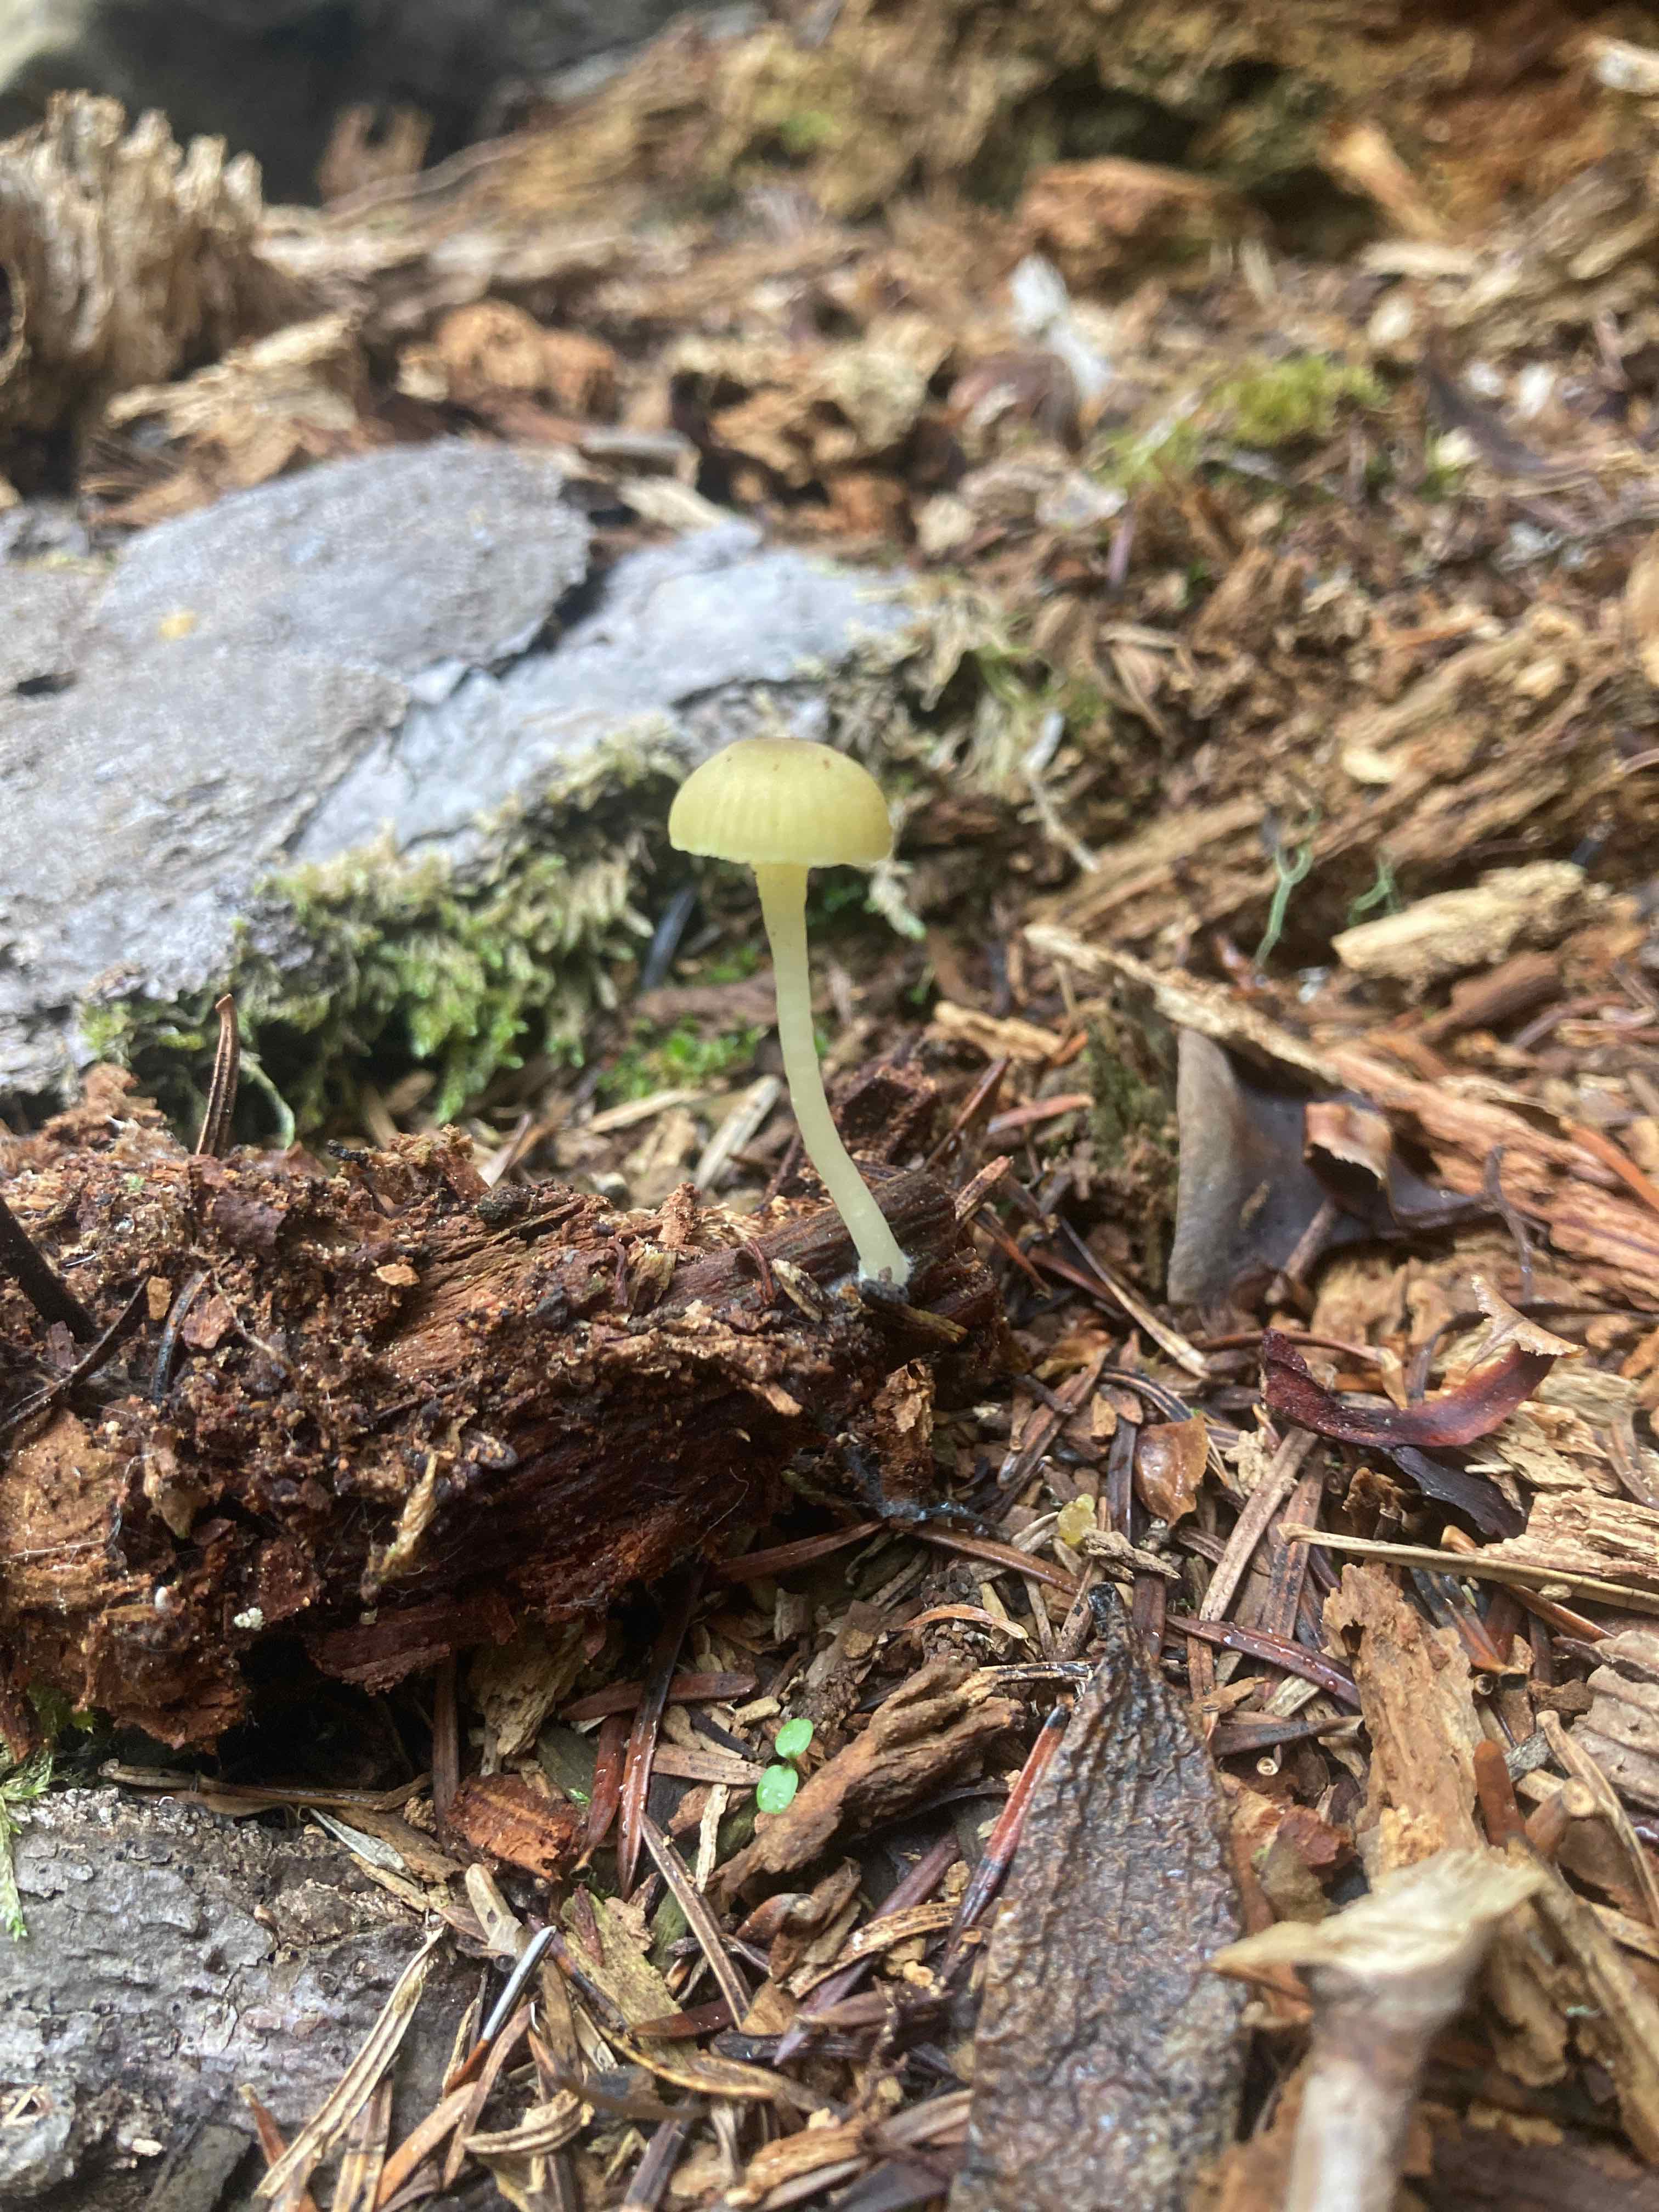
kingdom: Fungi
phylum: Basidiomycota
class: Agaricomycetes
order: Agaricales
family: Hygrophoraceae
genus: Chrysomphalina
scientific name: Chrysomphalina grossula
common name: stød-gyldenblad
